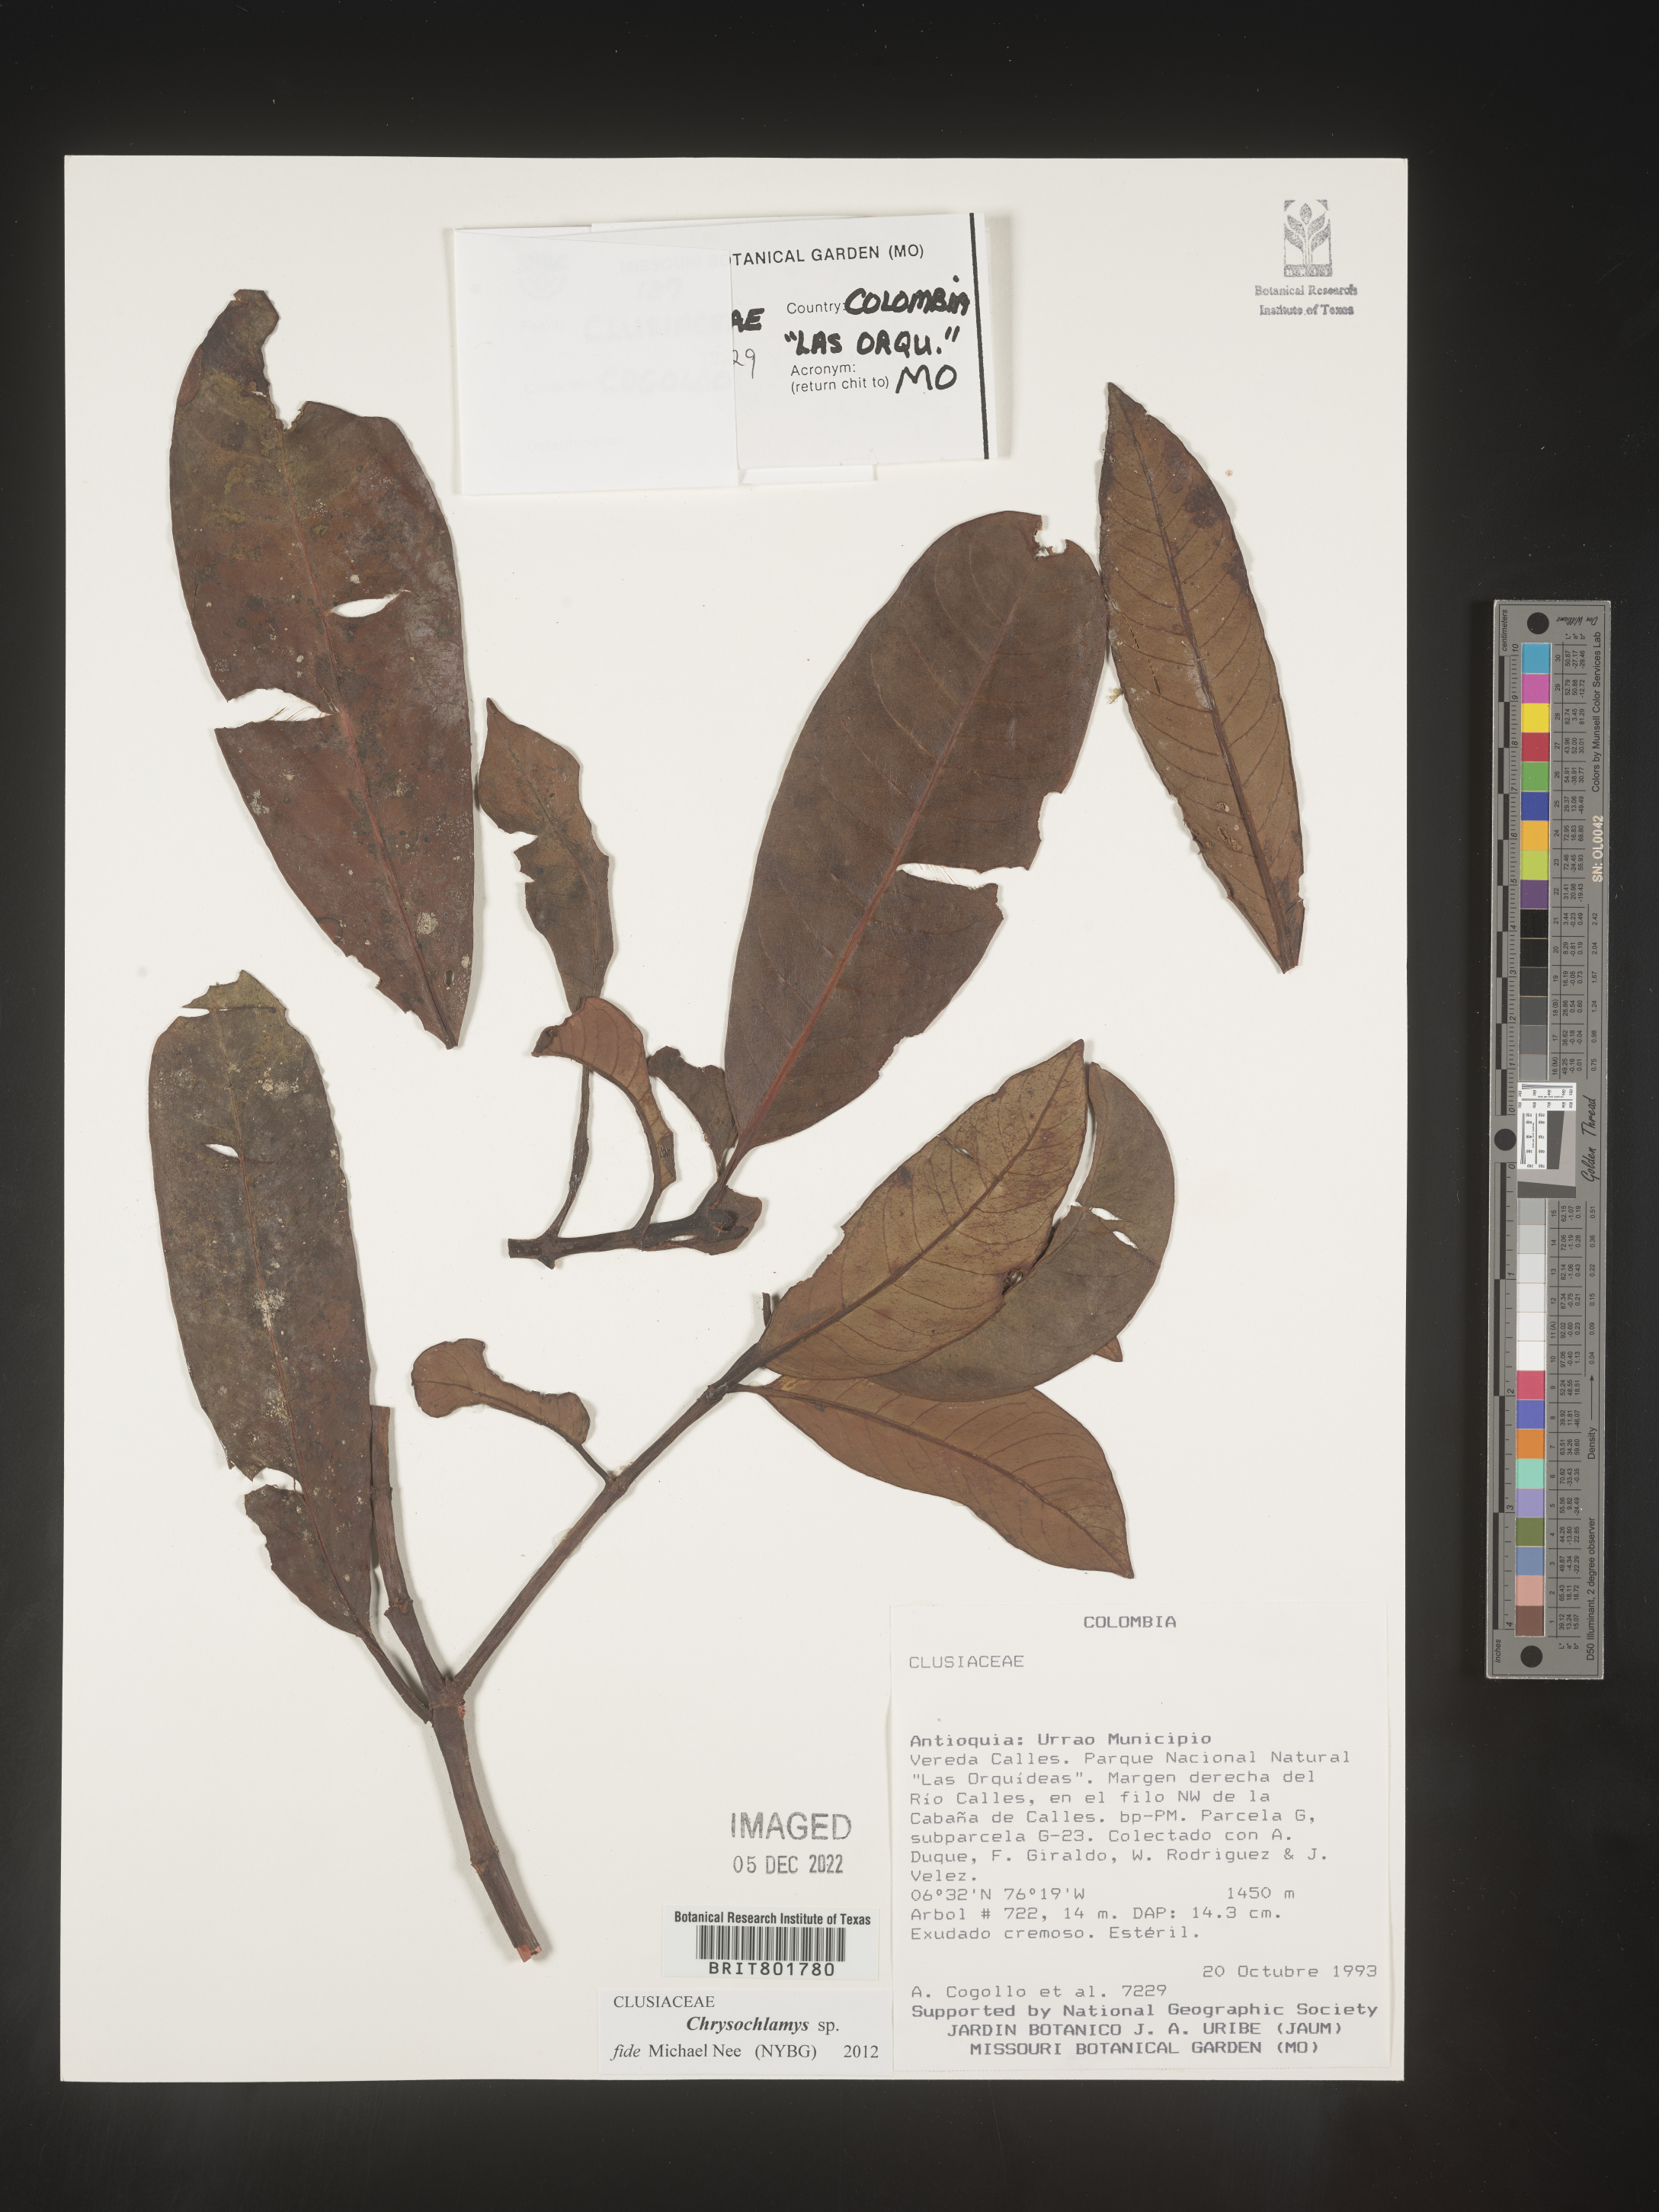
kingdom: Plantae
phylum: Tracheophyta
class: Magnoliopsida
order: Malpighiales
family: Clusiaceae
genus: Chrysochlamys
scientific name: Chrysochlamys
